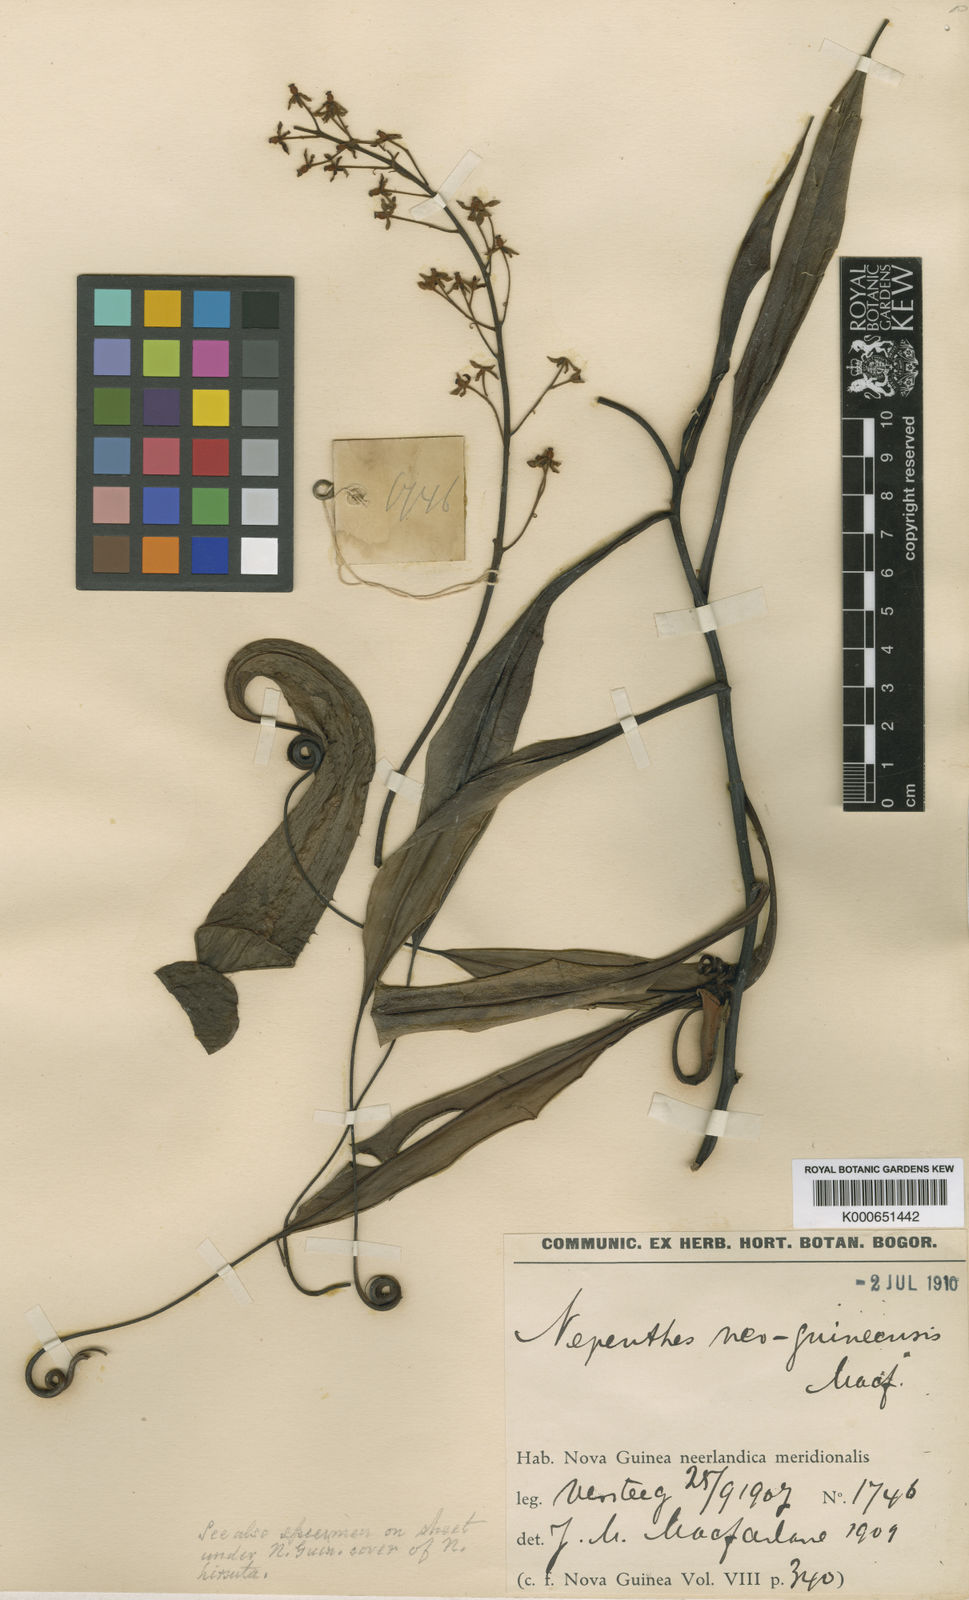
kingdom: Plantae
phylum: Tracheophyta
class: Magnoliopsida
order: Caryophyllales
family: Nepenthaceae
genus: Nepenthes
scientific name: Nepenthes neoguineensis
